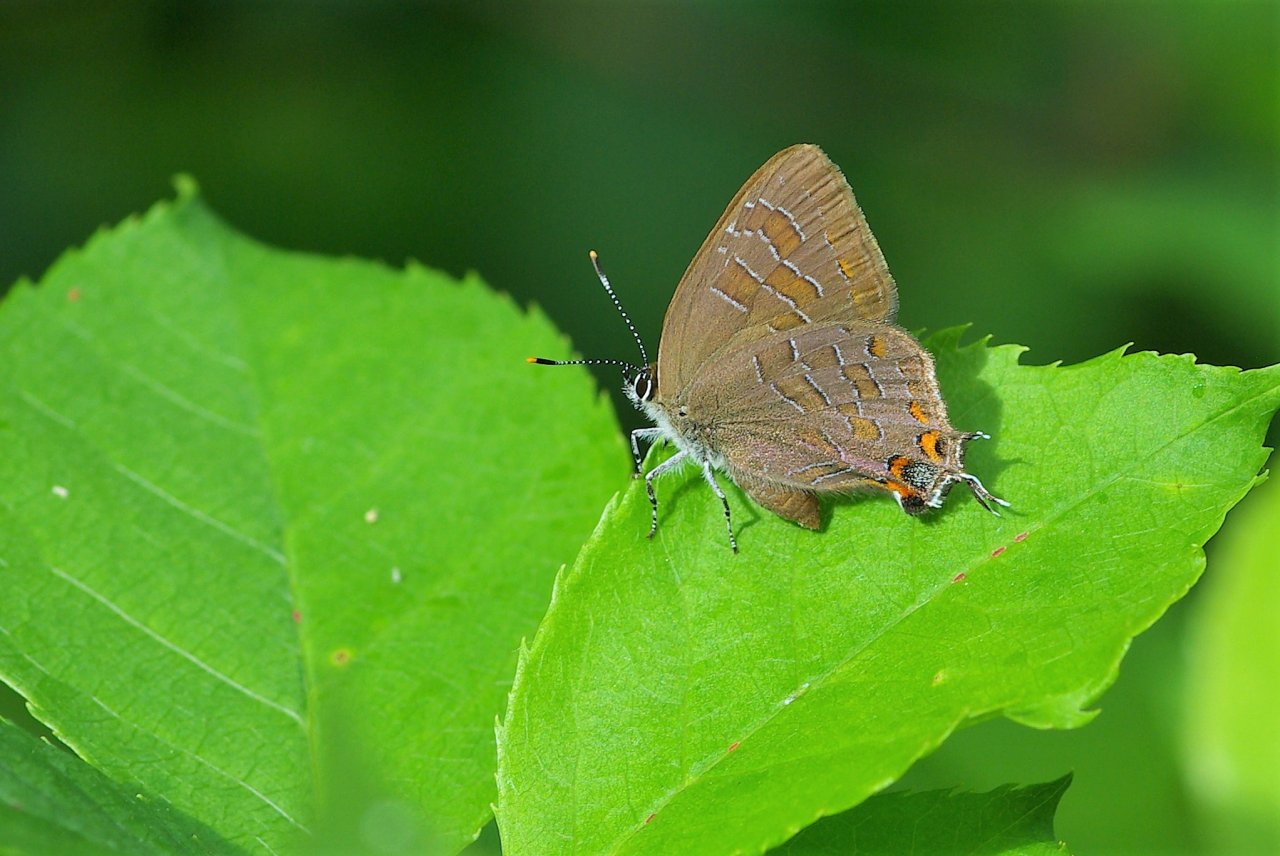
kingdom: Animalia
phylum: Arthropoda
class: Insecta
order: Lepidoptera
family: Lycaenidae
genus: Satyrium
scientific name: Satyrium calanus
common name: Banded Hairstreak
